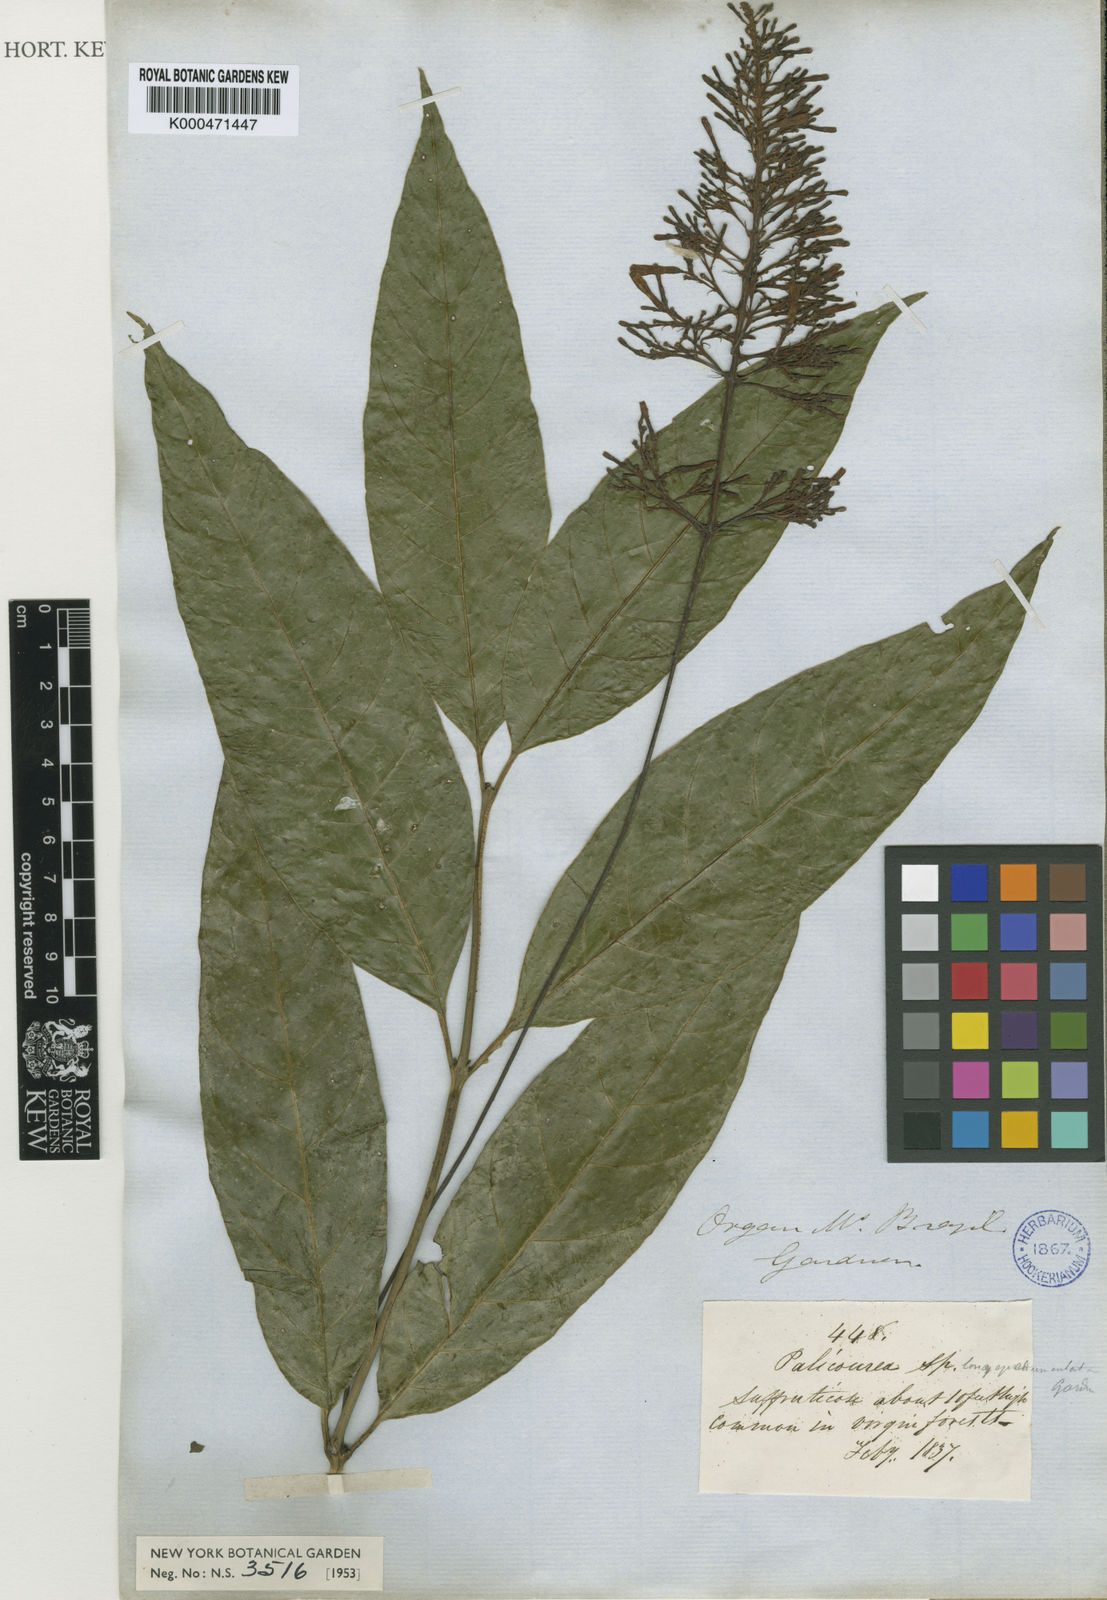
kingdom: Plantae
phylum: Tracheophyta
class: Magnoliopsida
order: Gentianales
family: Rubiaceae
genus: Palicourea
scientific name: Palicourea longipedunculata
